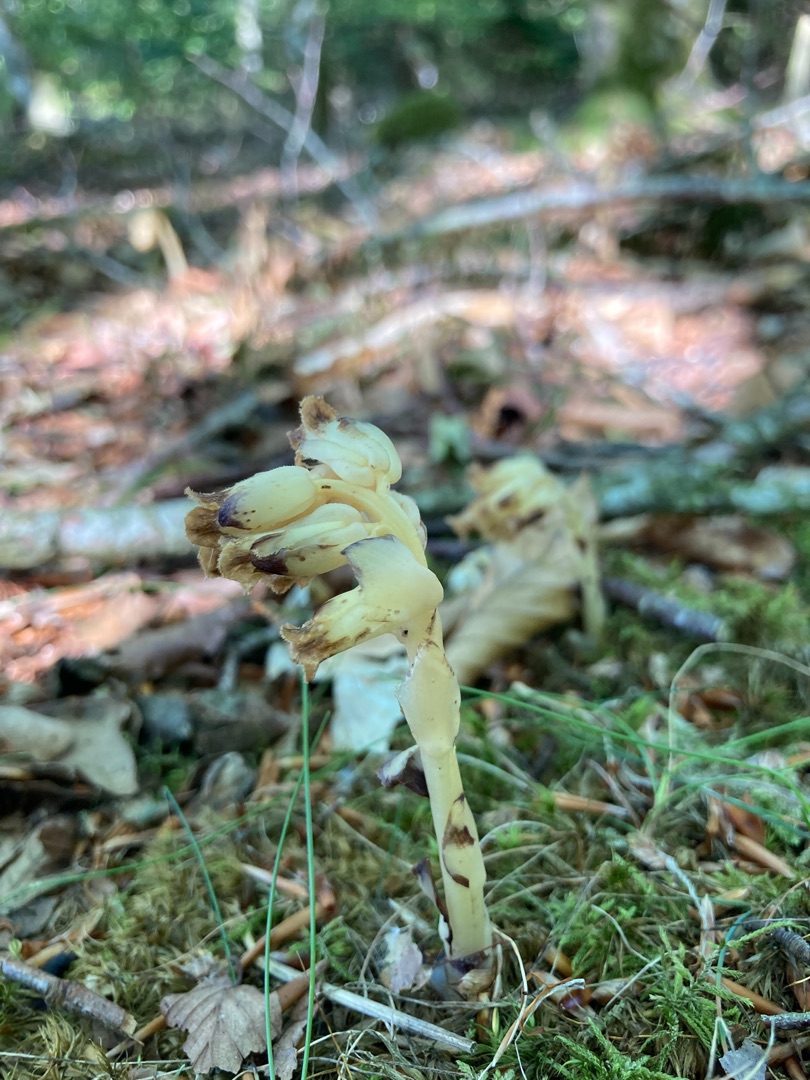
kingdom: Plantae
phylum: Tracheophyta
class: Magnoliopsida
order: Ericales
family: Ericaceae
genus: Hypopitys
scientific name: Hypopitys monotropa
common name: Snylterod
